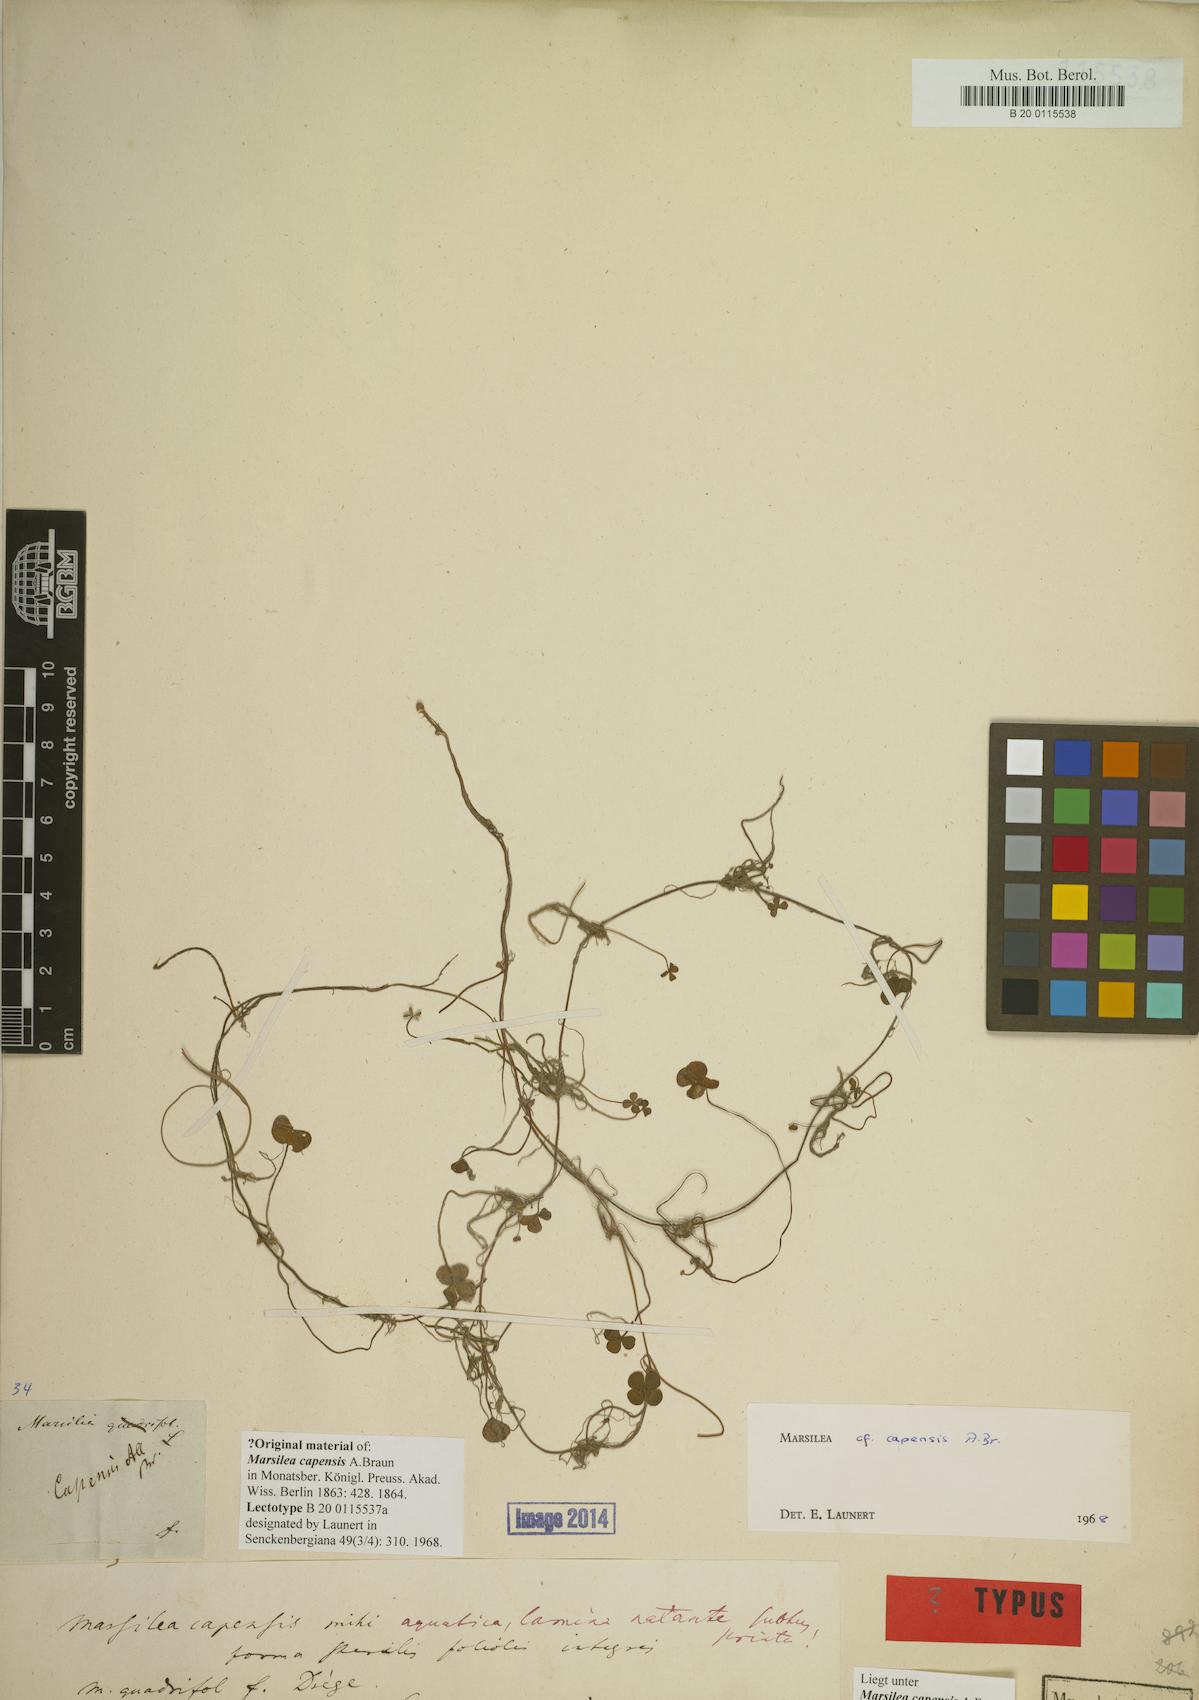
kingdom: Plantae
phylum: Tracheophyta
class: Polypodiopsida
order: Salviniales
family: Marsileaceae
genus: Marsilea
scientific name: Marsilea capensis
